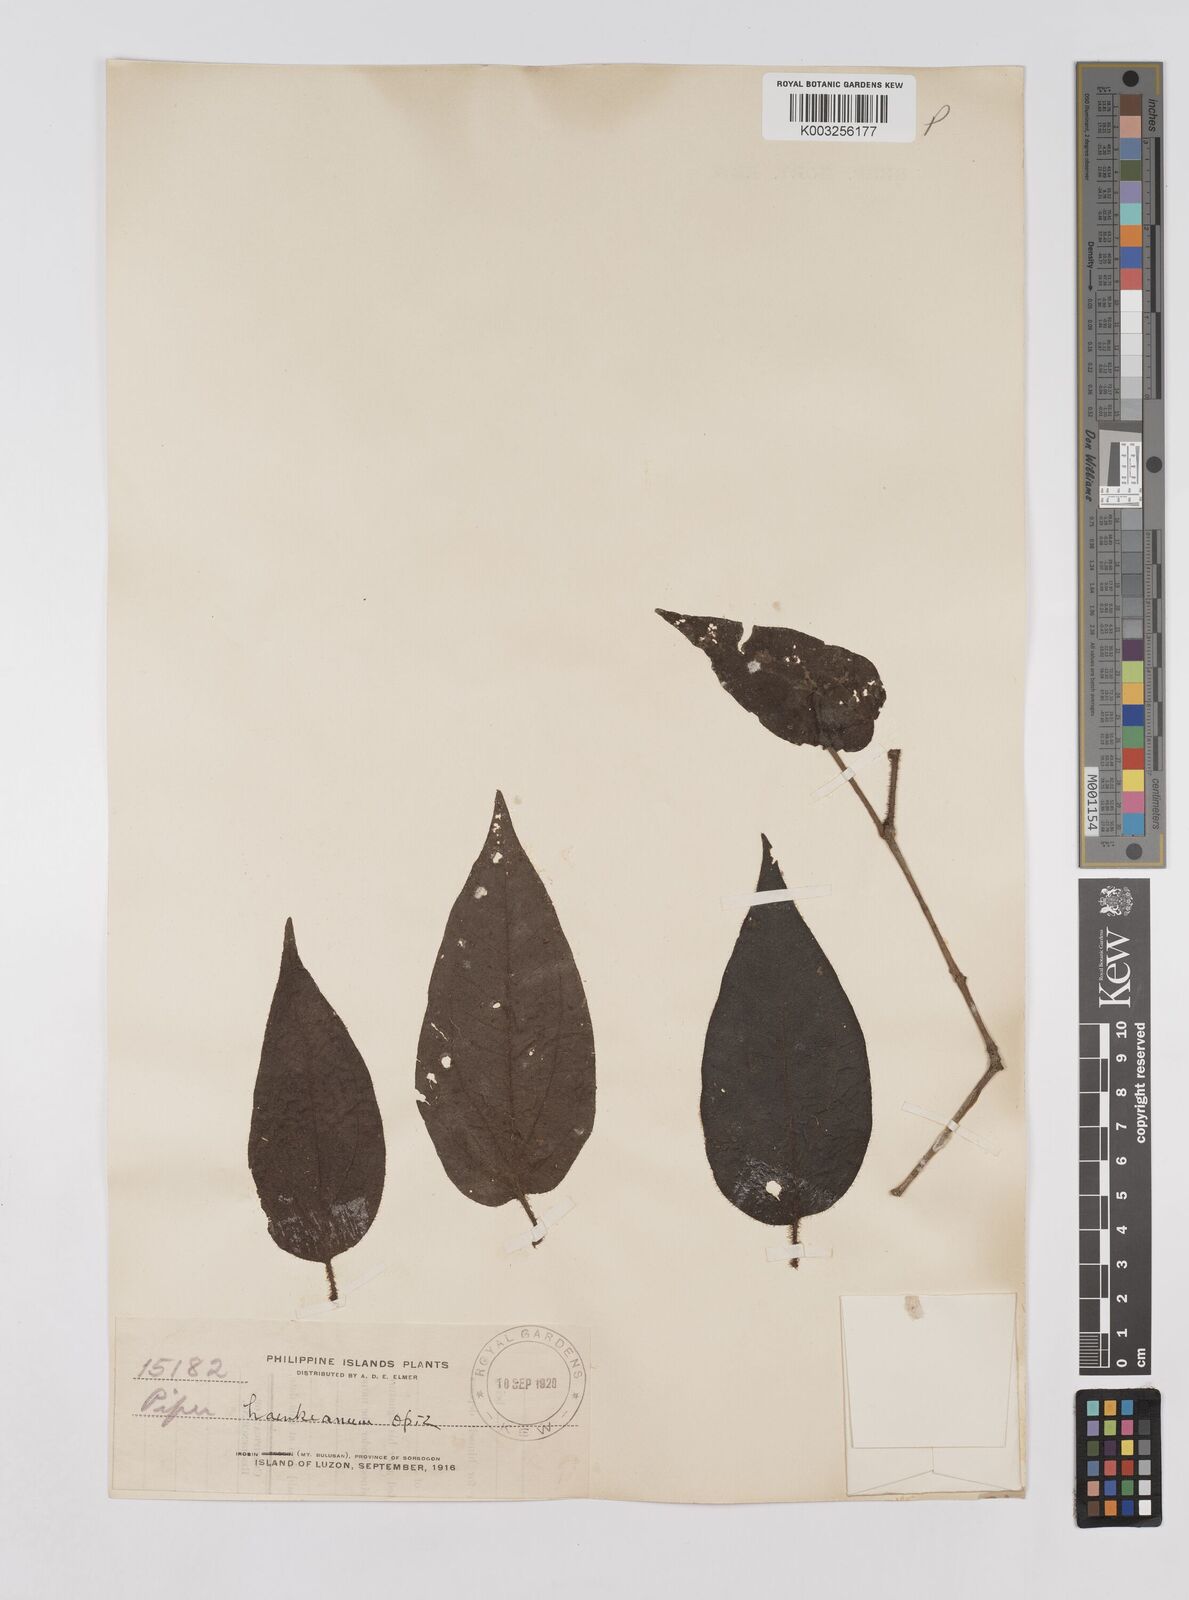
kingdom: Plantae
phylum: Tracheophyta
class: Magnoliopsida
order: Piperales
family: Piperaceae
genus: Piper
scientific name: Piper lanatum
